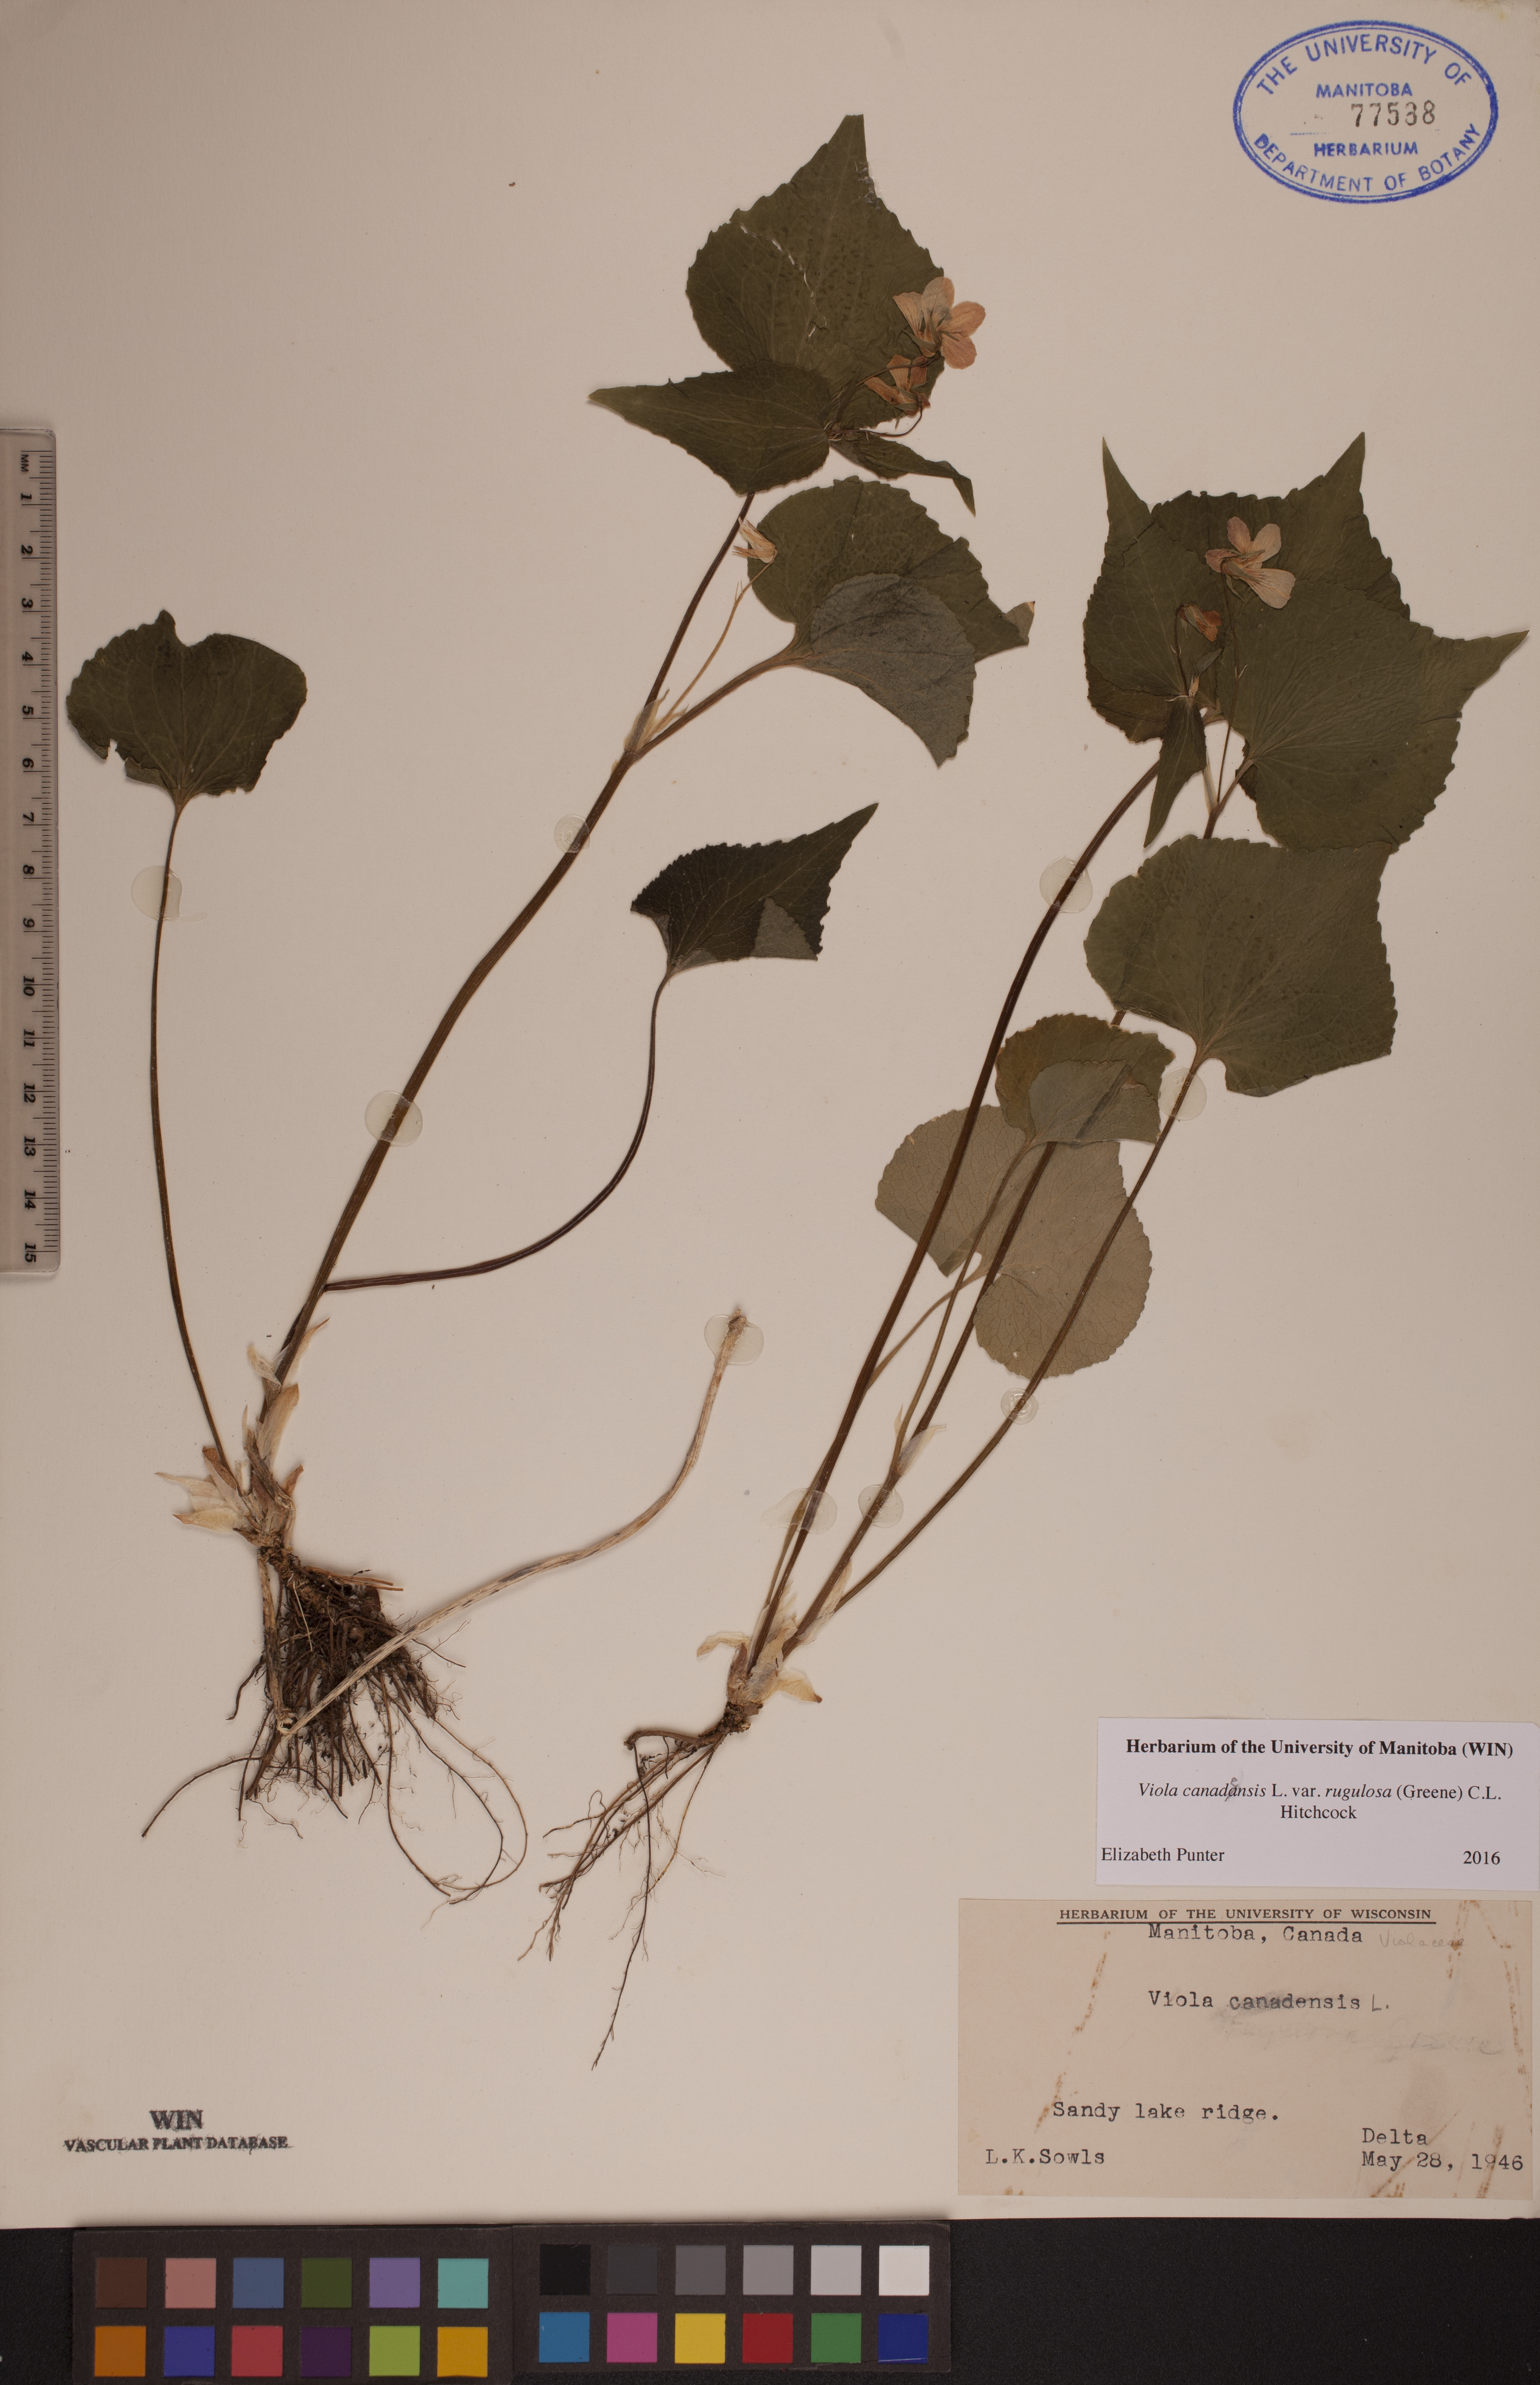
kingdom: Plantae
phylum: Tracheophyta
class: Magnoliopsida
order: Malpighiales
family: Violaceae
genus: Viola
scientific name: Viola rugulosa
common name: Creeping-root violet
